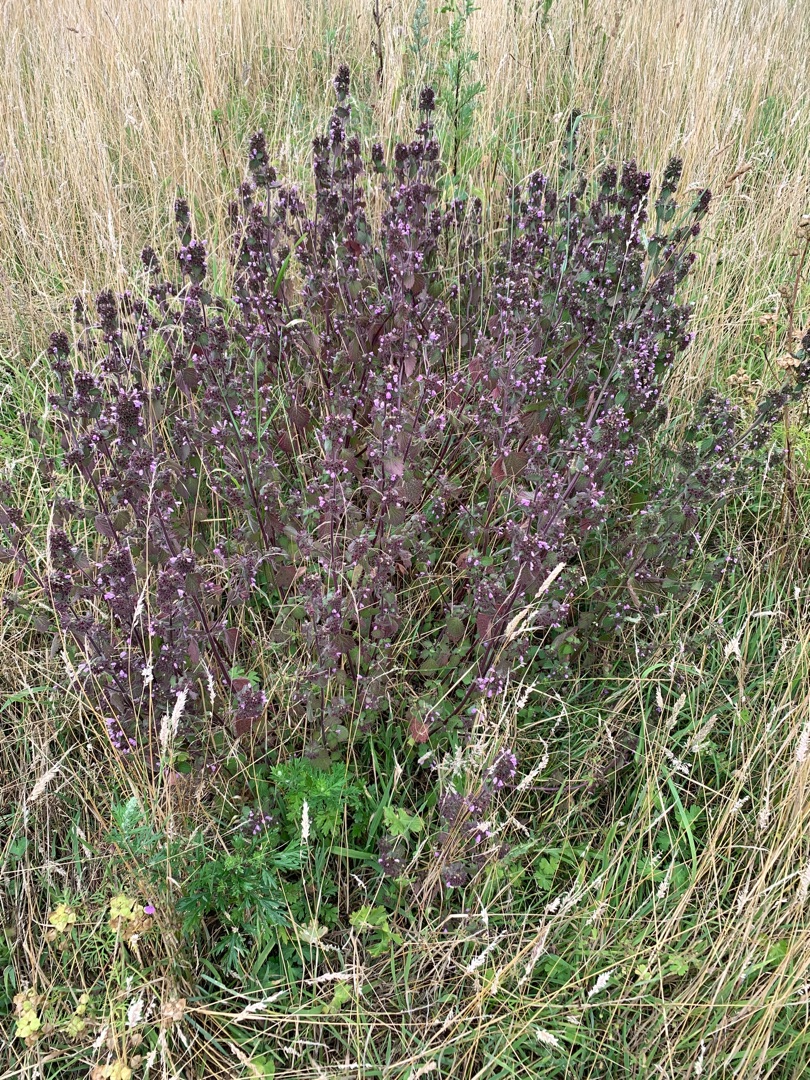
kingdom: Plantae
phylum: Tracheophyta
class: Magnoliopsida
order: Lamiales
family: Lamiaceae
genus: Ballota
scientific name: Ballota nigra
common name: Rød tandbæger
